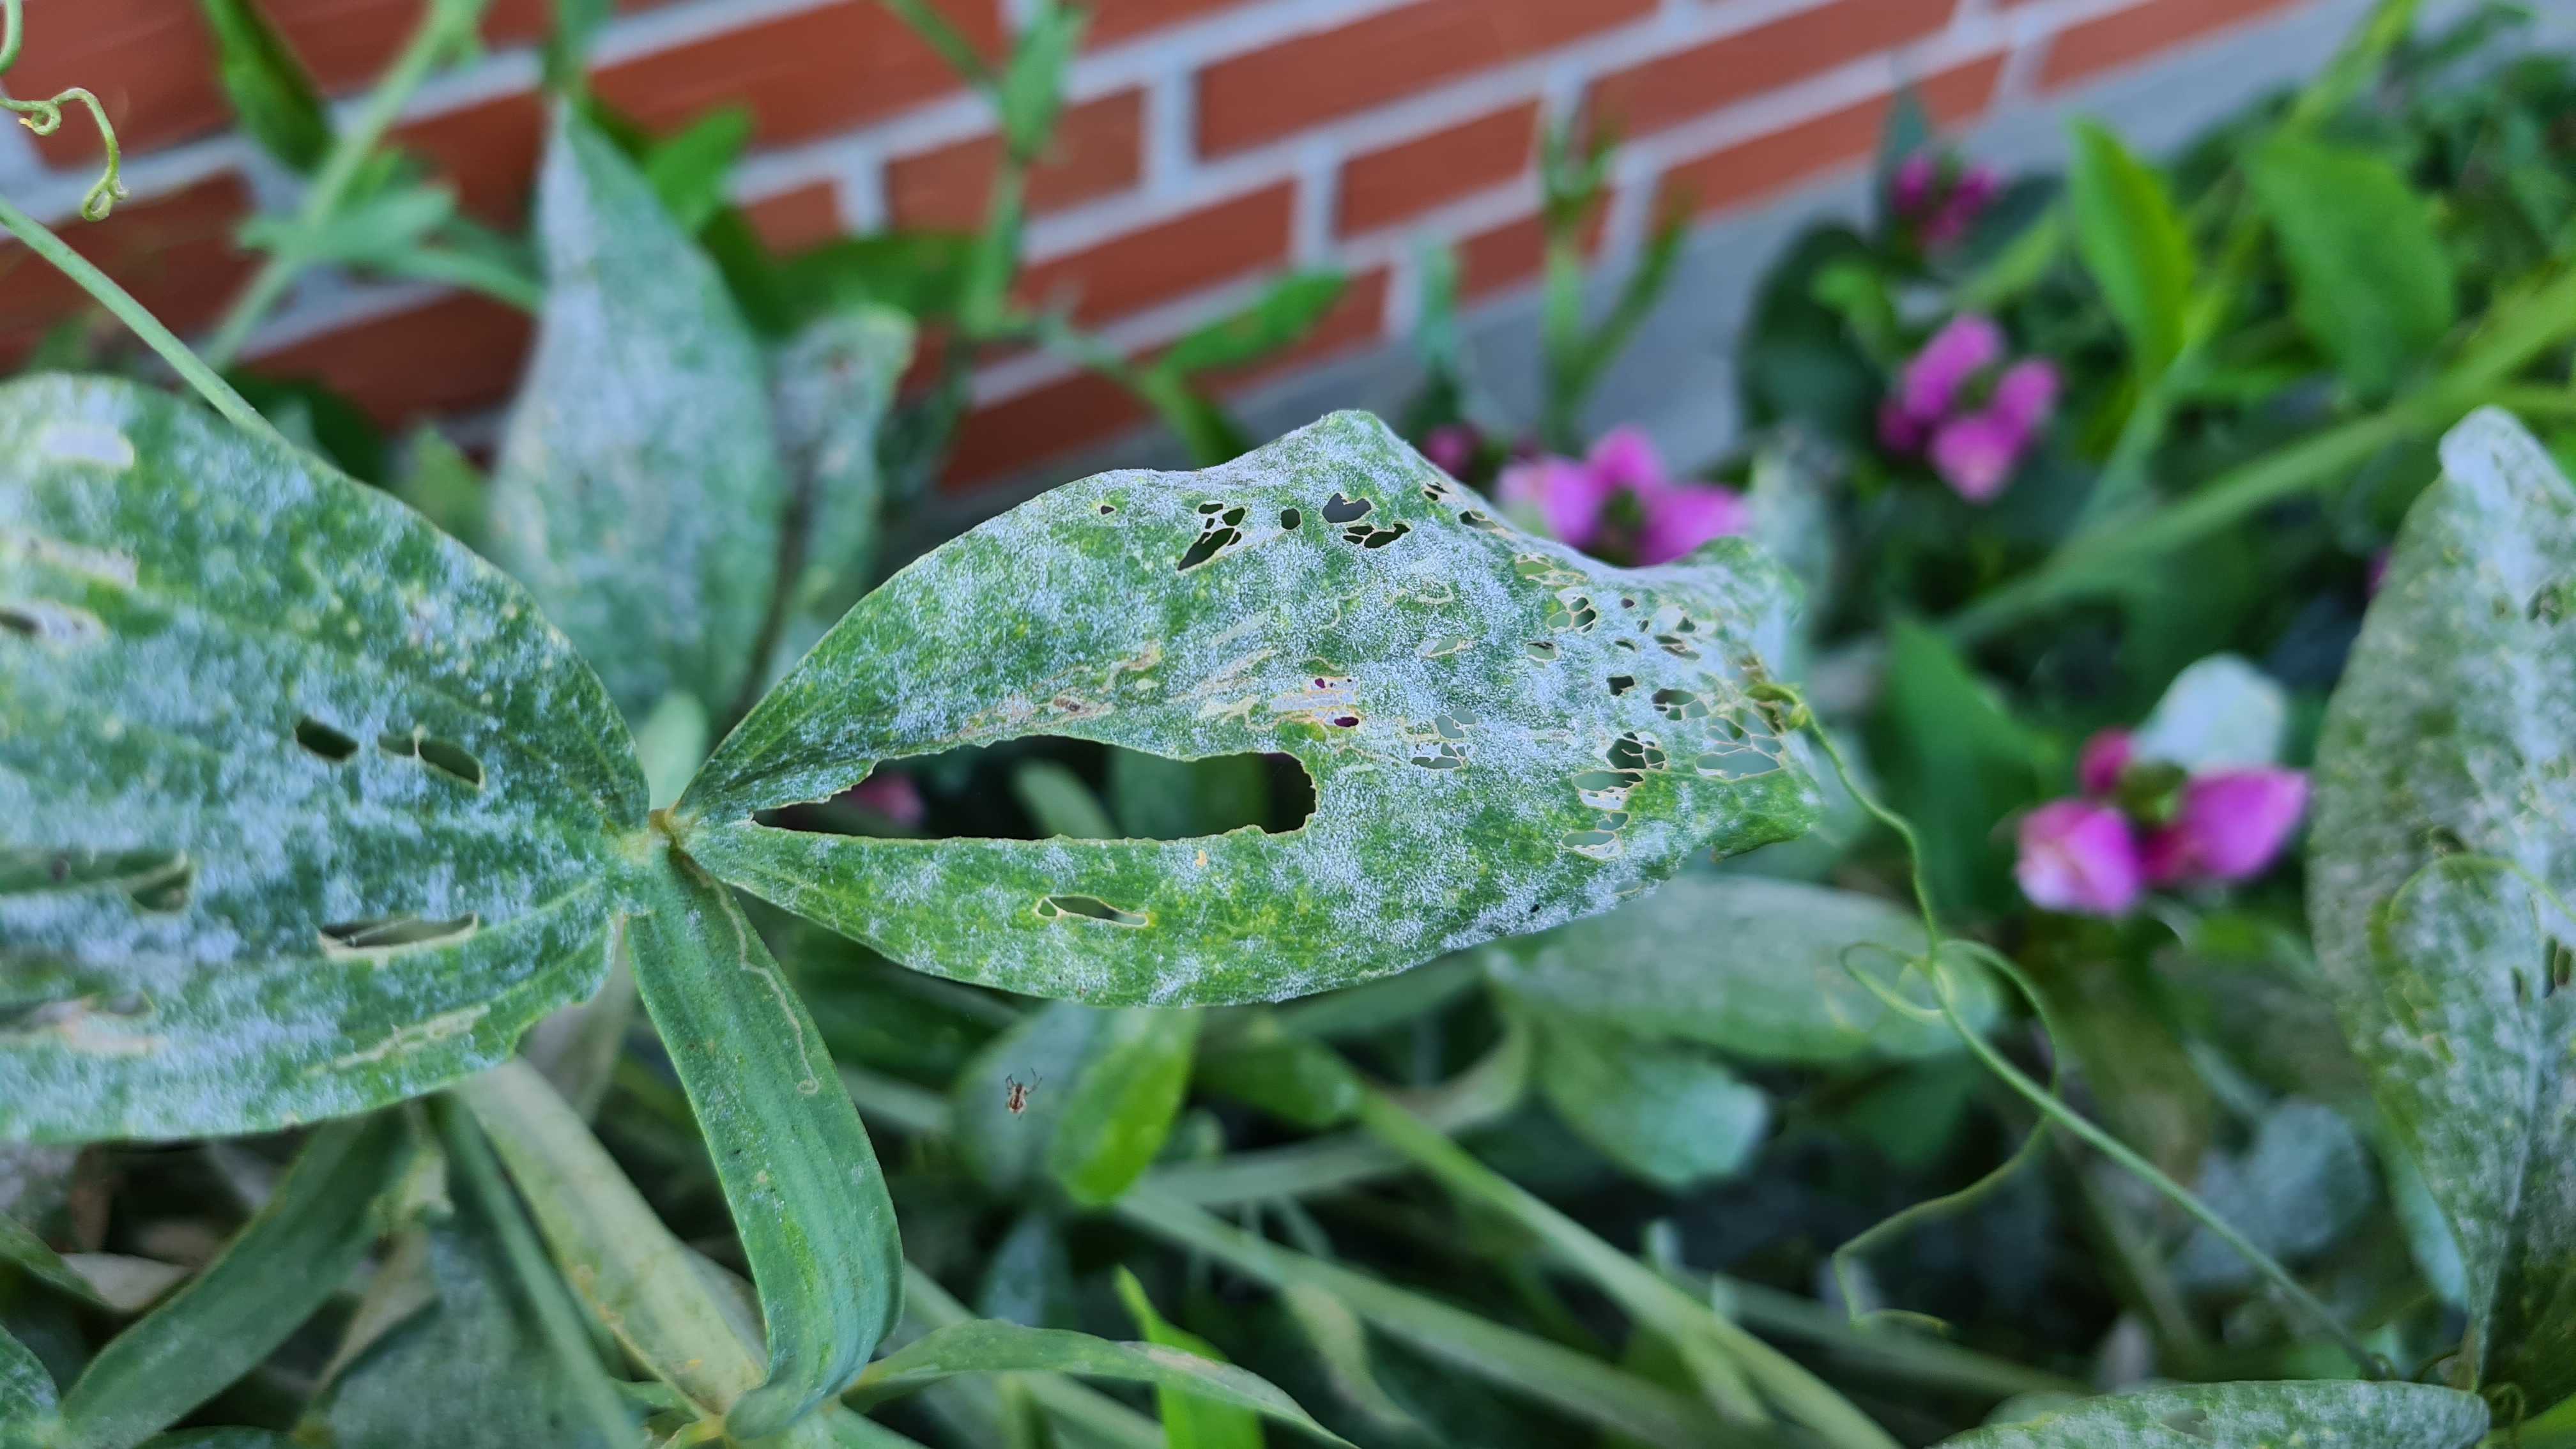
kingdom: Fungi
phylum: Ascomycota
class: Leotiomycetes
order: Helotiales
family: Erysiphaceae
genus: Erysiphe
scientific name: Erysiphe
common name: meldug
